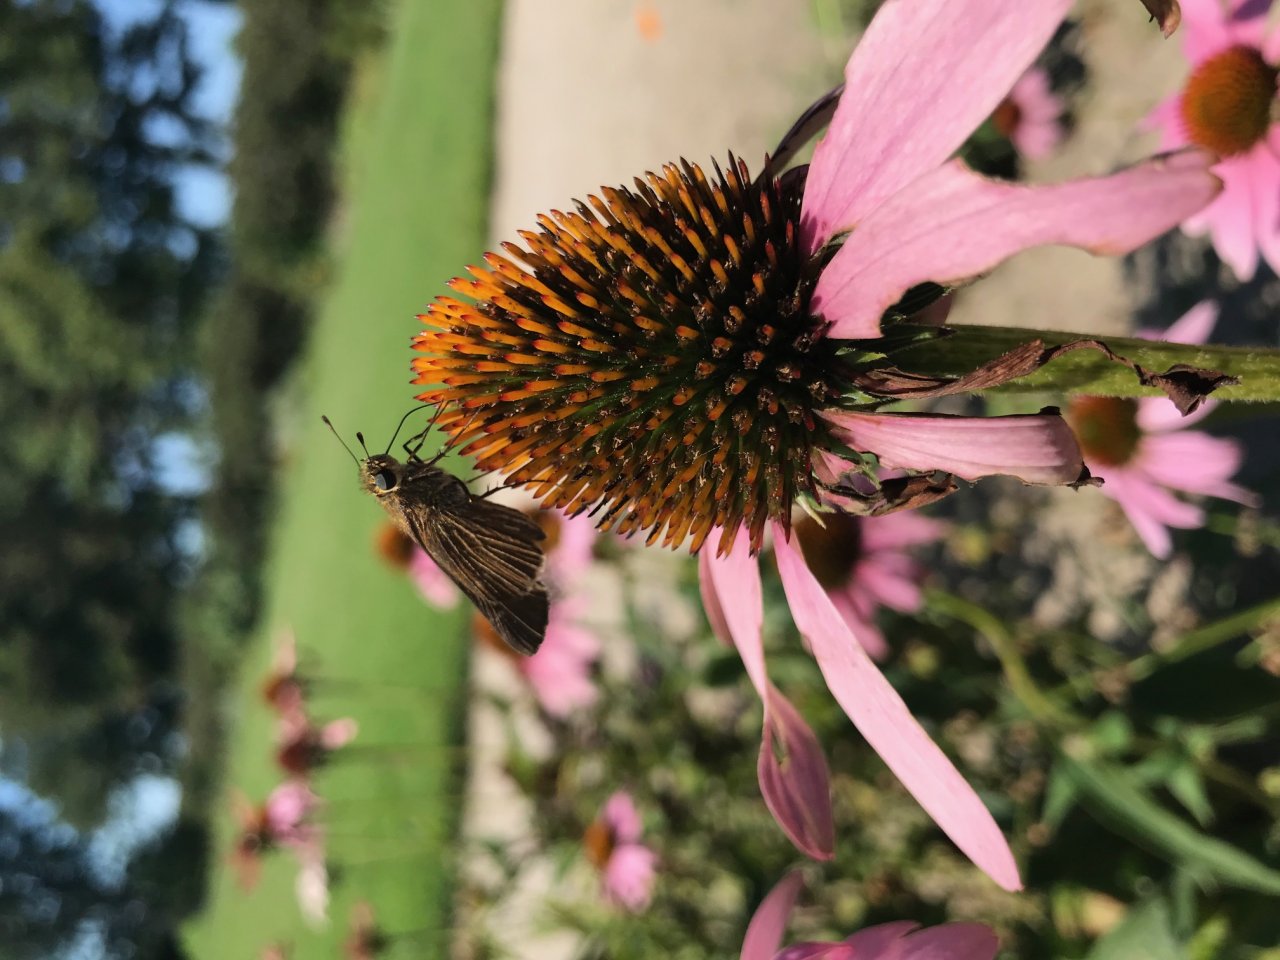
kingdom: Animalia
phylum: Arthropoda
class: Insecta
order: Lepidoptera
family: Hesperiidae
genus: Panoquina
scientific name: Panoquina ocola
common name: Ocola Skipper
